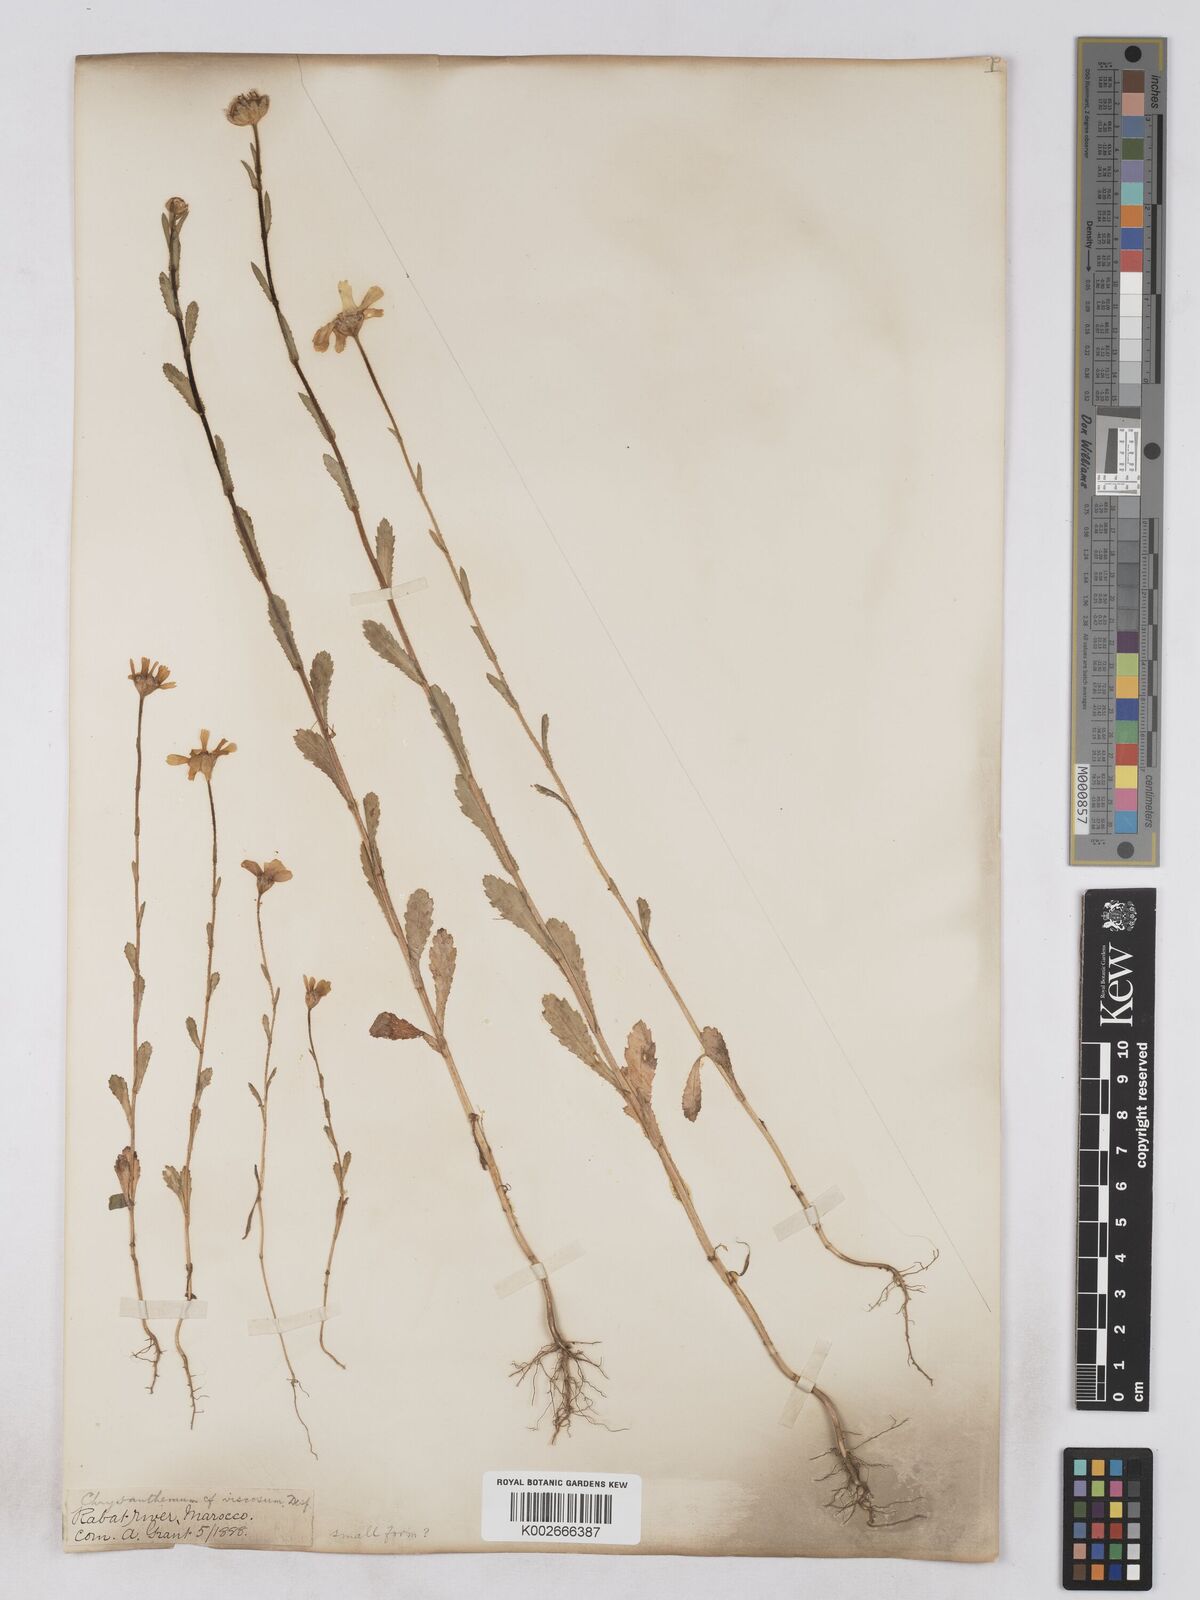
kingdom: Plantae
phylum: Tracheophyta
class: Magnoliopsida
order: Asterales
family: Asteraceae
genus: Heteranthemis
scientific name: Heteranthemis
